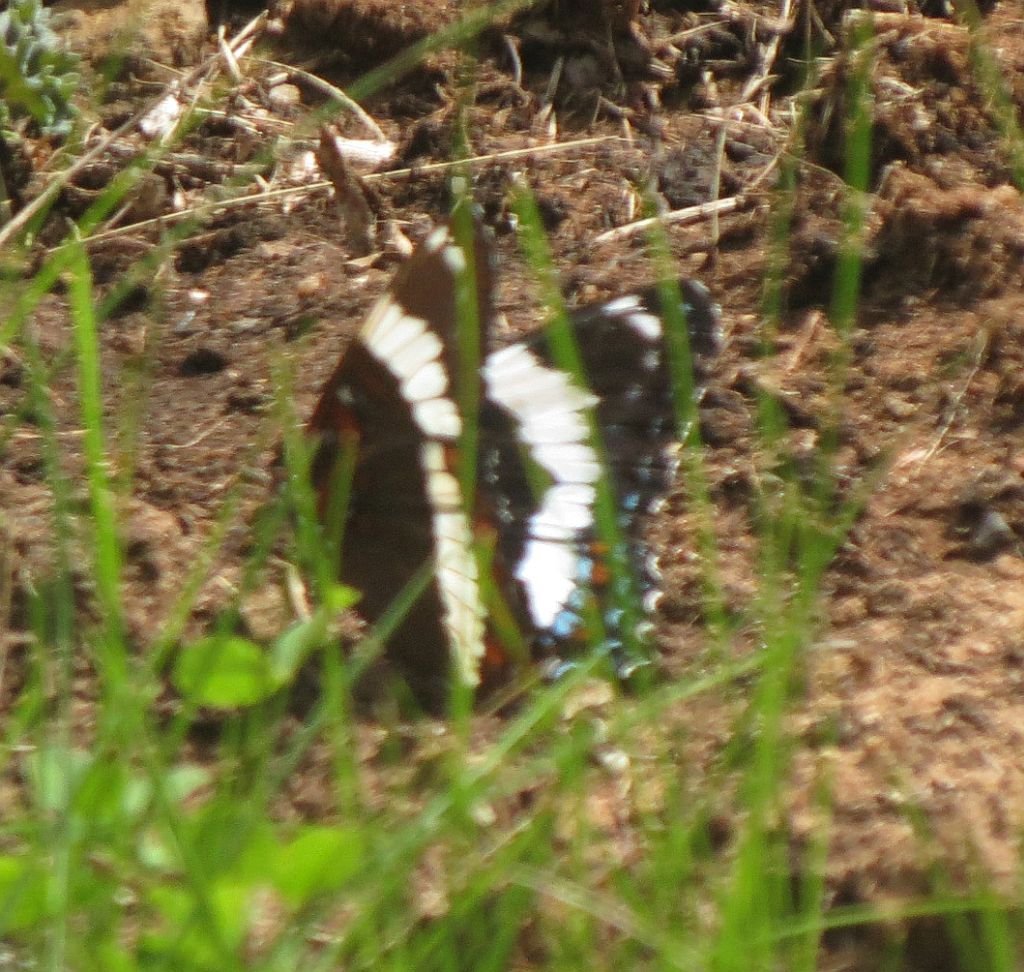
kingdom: Animalia
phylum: Arthropoda
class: Insecta
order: Lepidoptera
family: Nymphalidae
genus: Limenitis
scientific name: Limenitis arthemis
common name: Red-spotted Admiral
